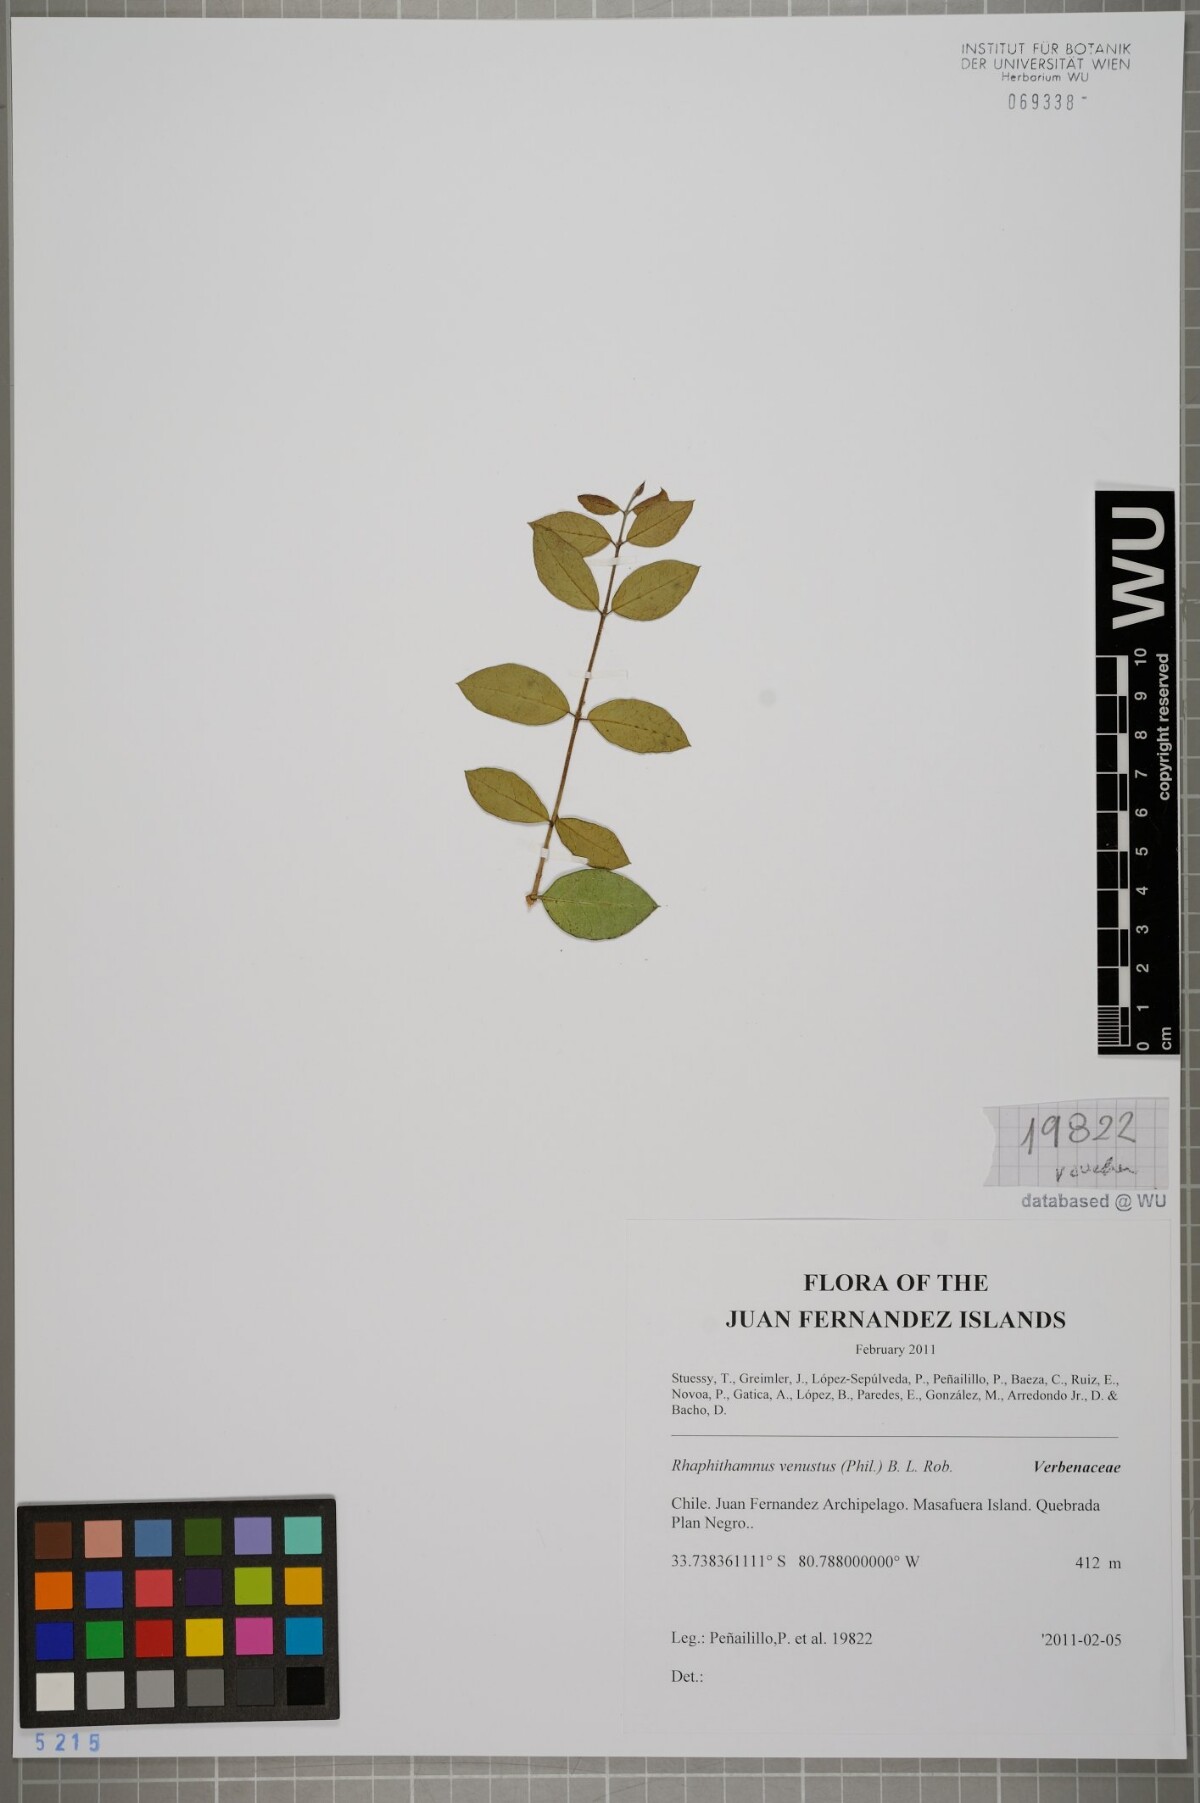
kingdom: Plantae
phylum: Tracheophyta
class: Magnoliopsida
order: Lamiales
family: Verbenaceae
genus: Rhaphithamnus
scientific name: Rhaphithamnus venustus
